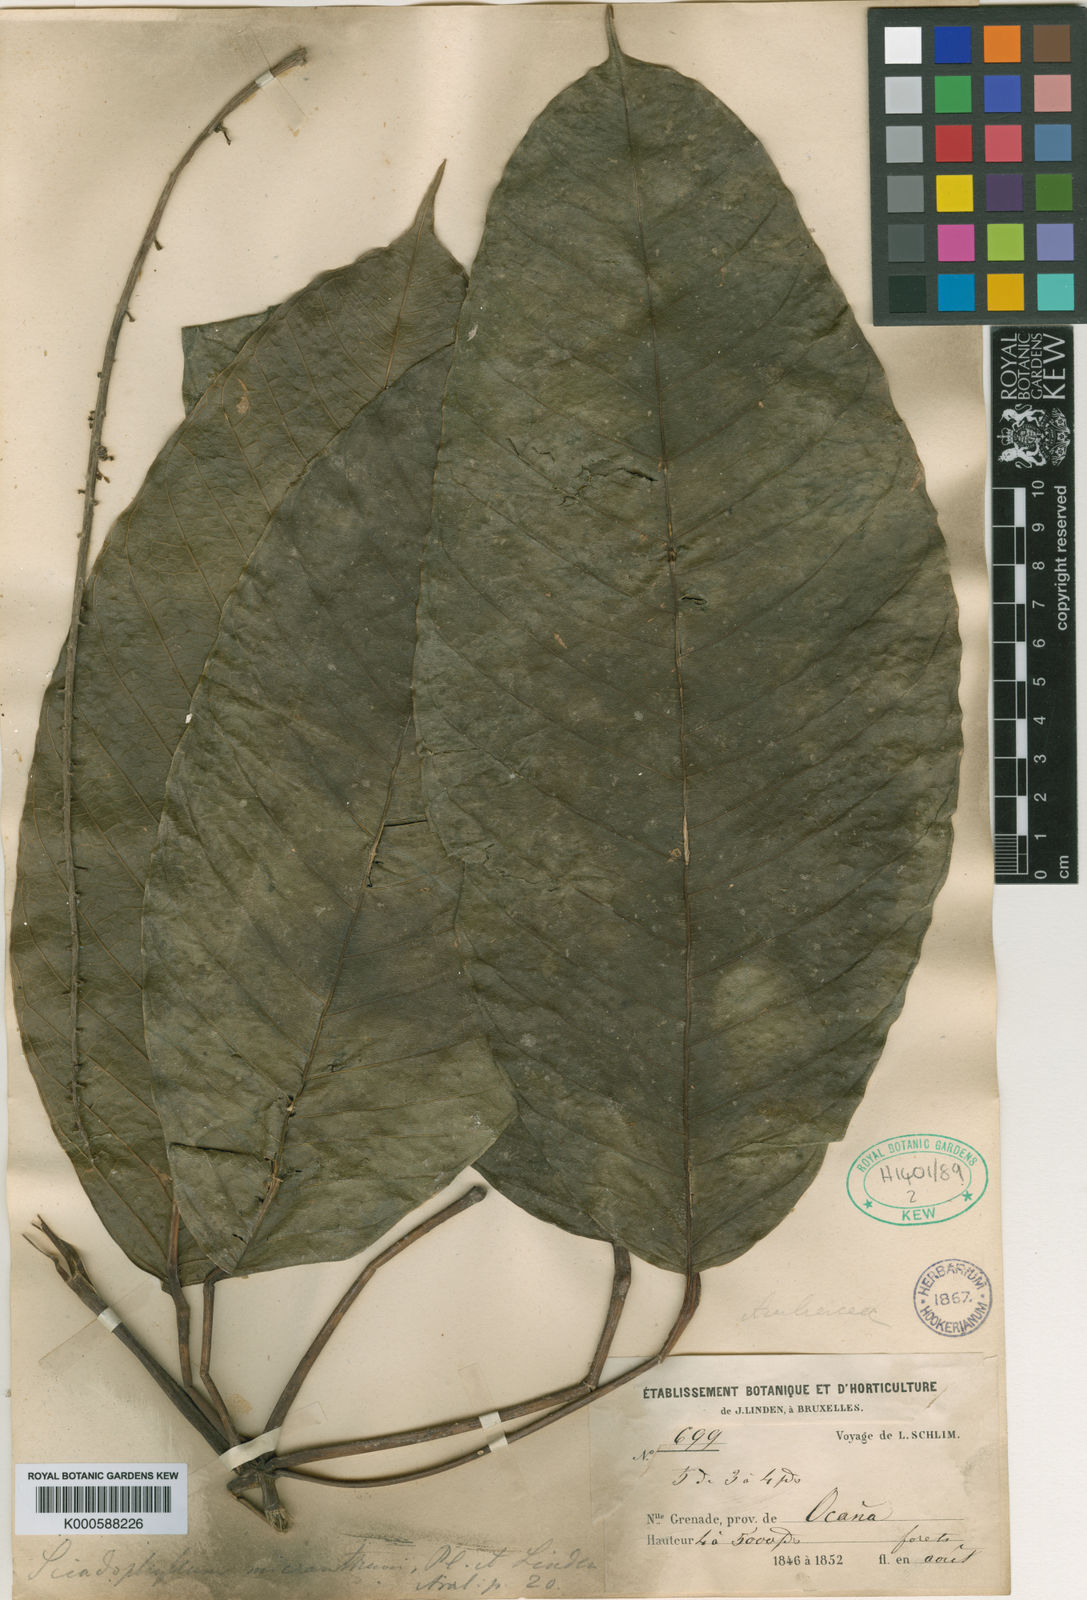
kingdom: Plantae
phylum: Tracheophyta
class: Magnoliopsida
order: Apiales
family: Araliaceae
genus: Sciodaphyllum
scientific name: Sciodaphyllum minutiflorum
